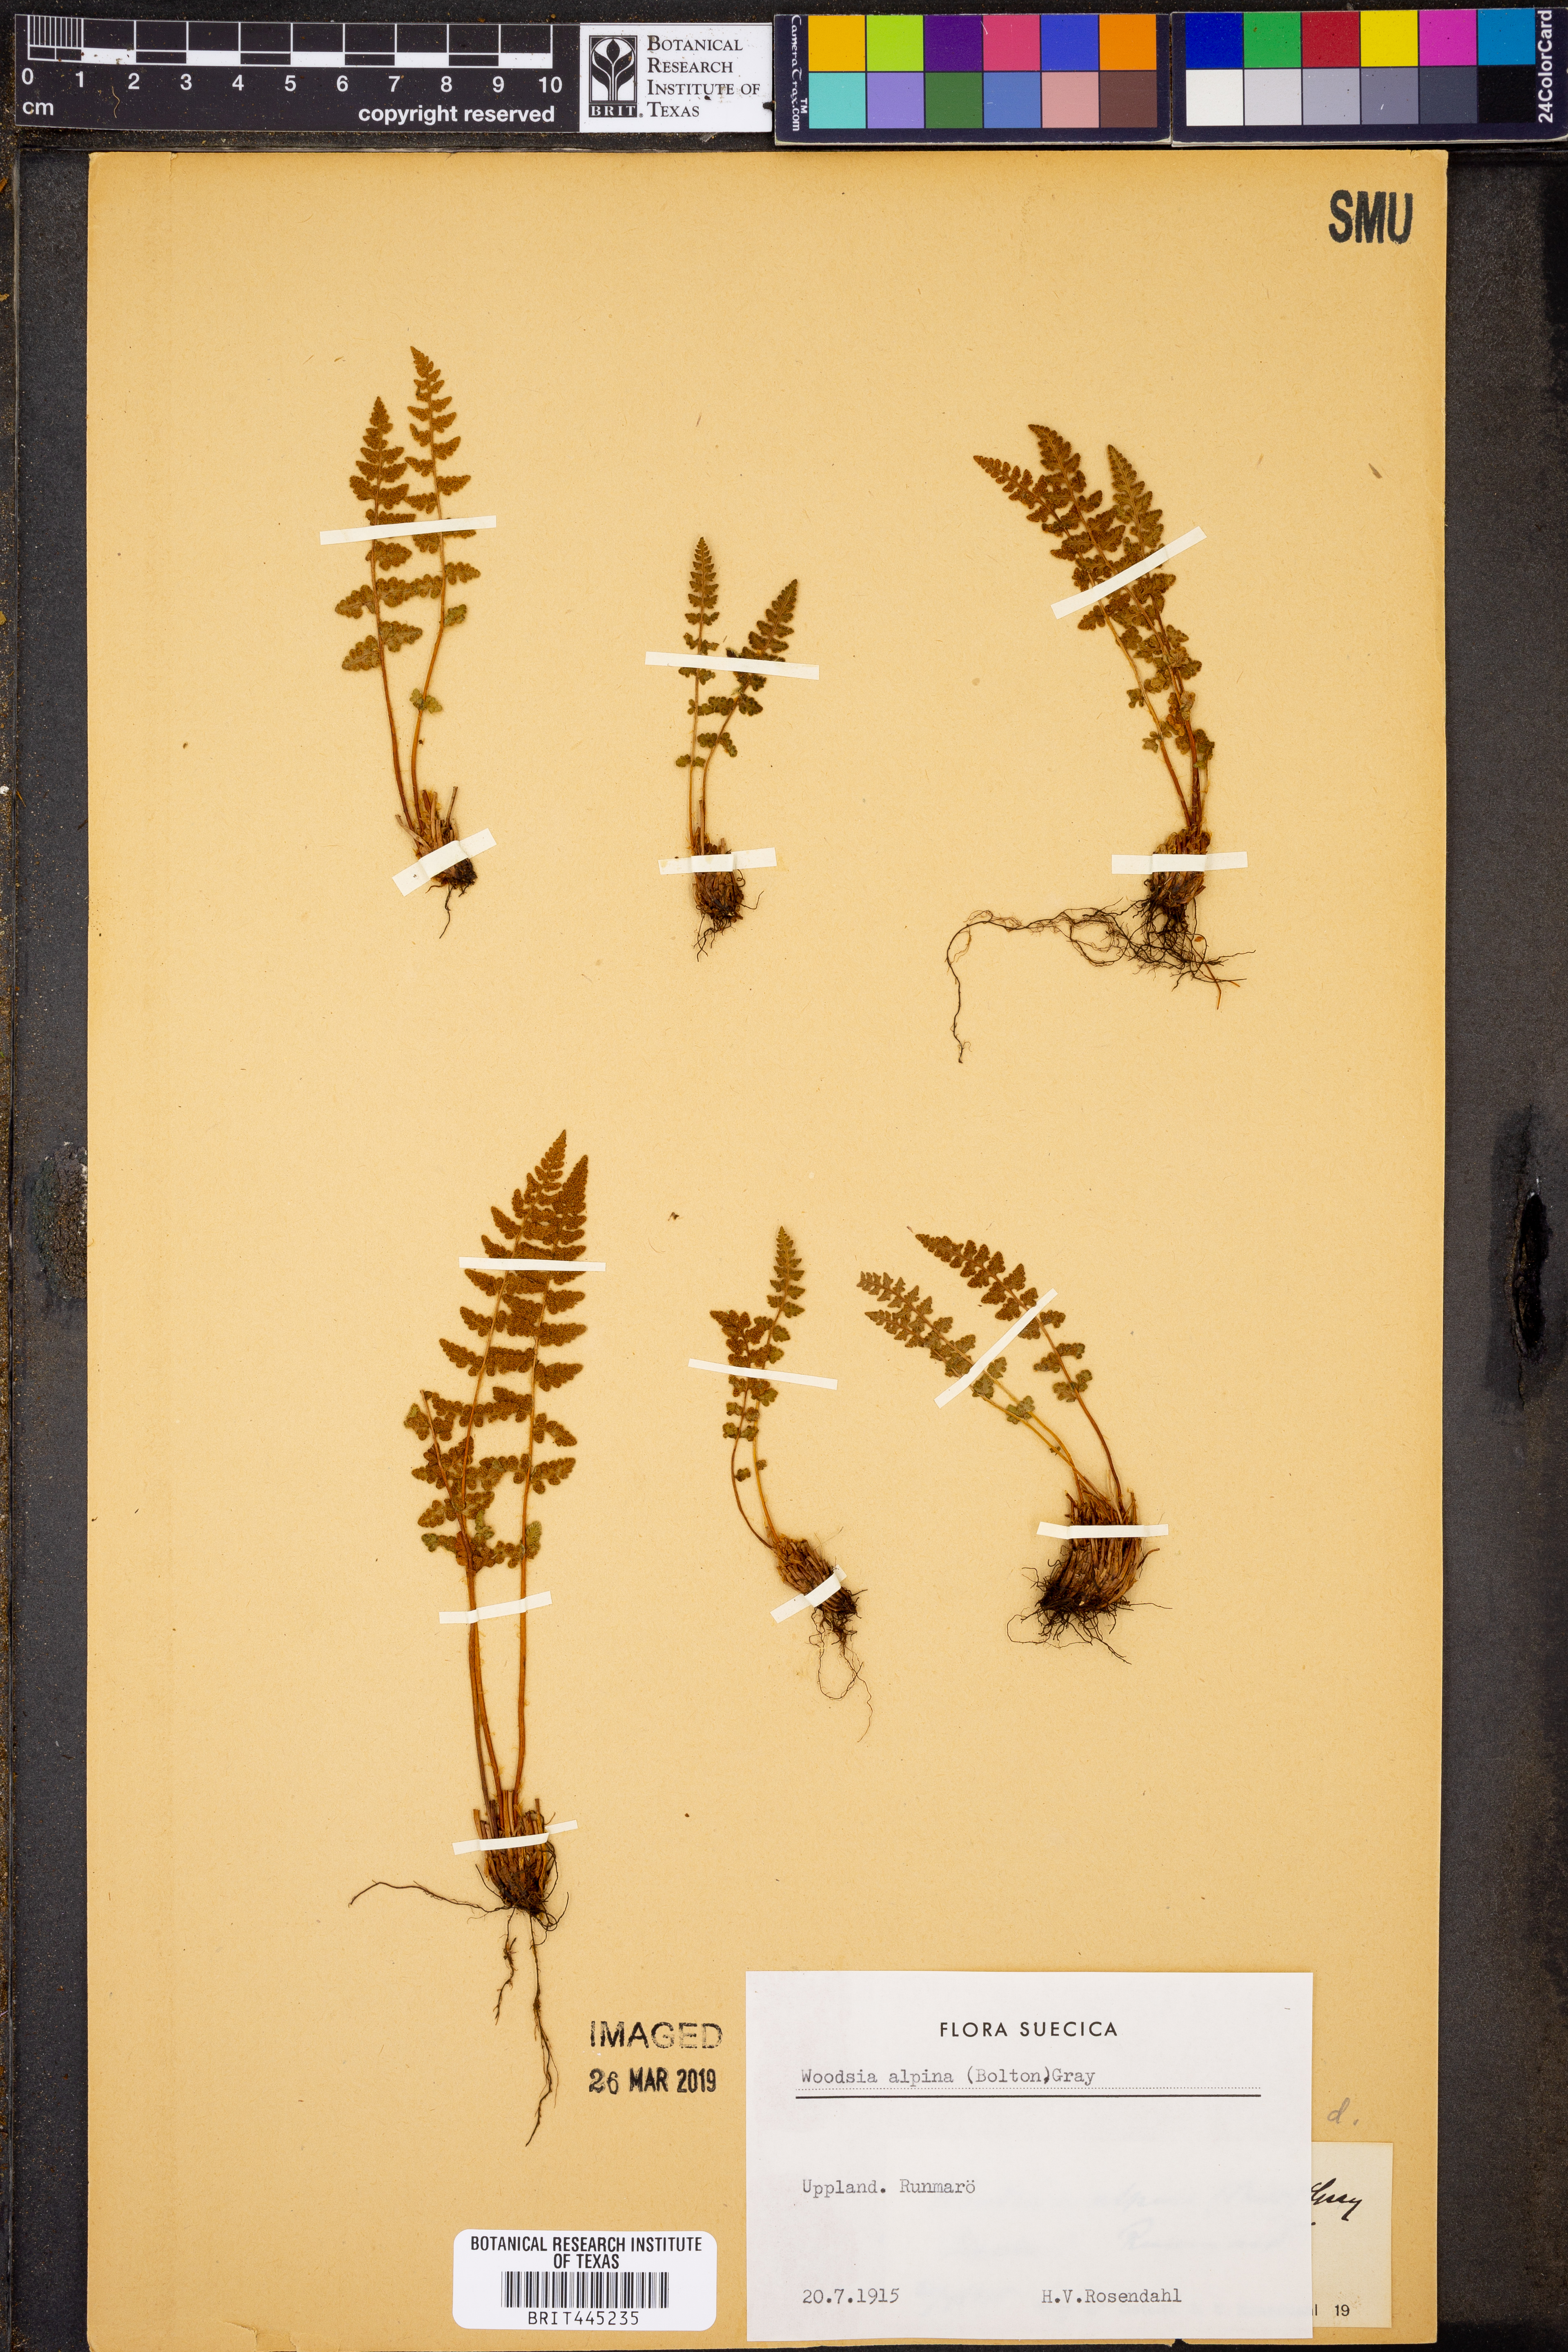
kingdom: Plantae
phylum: Tracheophyta
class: Polypodiopsida
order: Polypodiales
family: Woodsiaceae
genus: Woodsia
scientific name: Woodsia alpina
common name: Alpine woodsia
